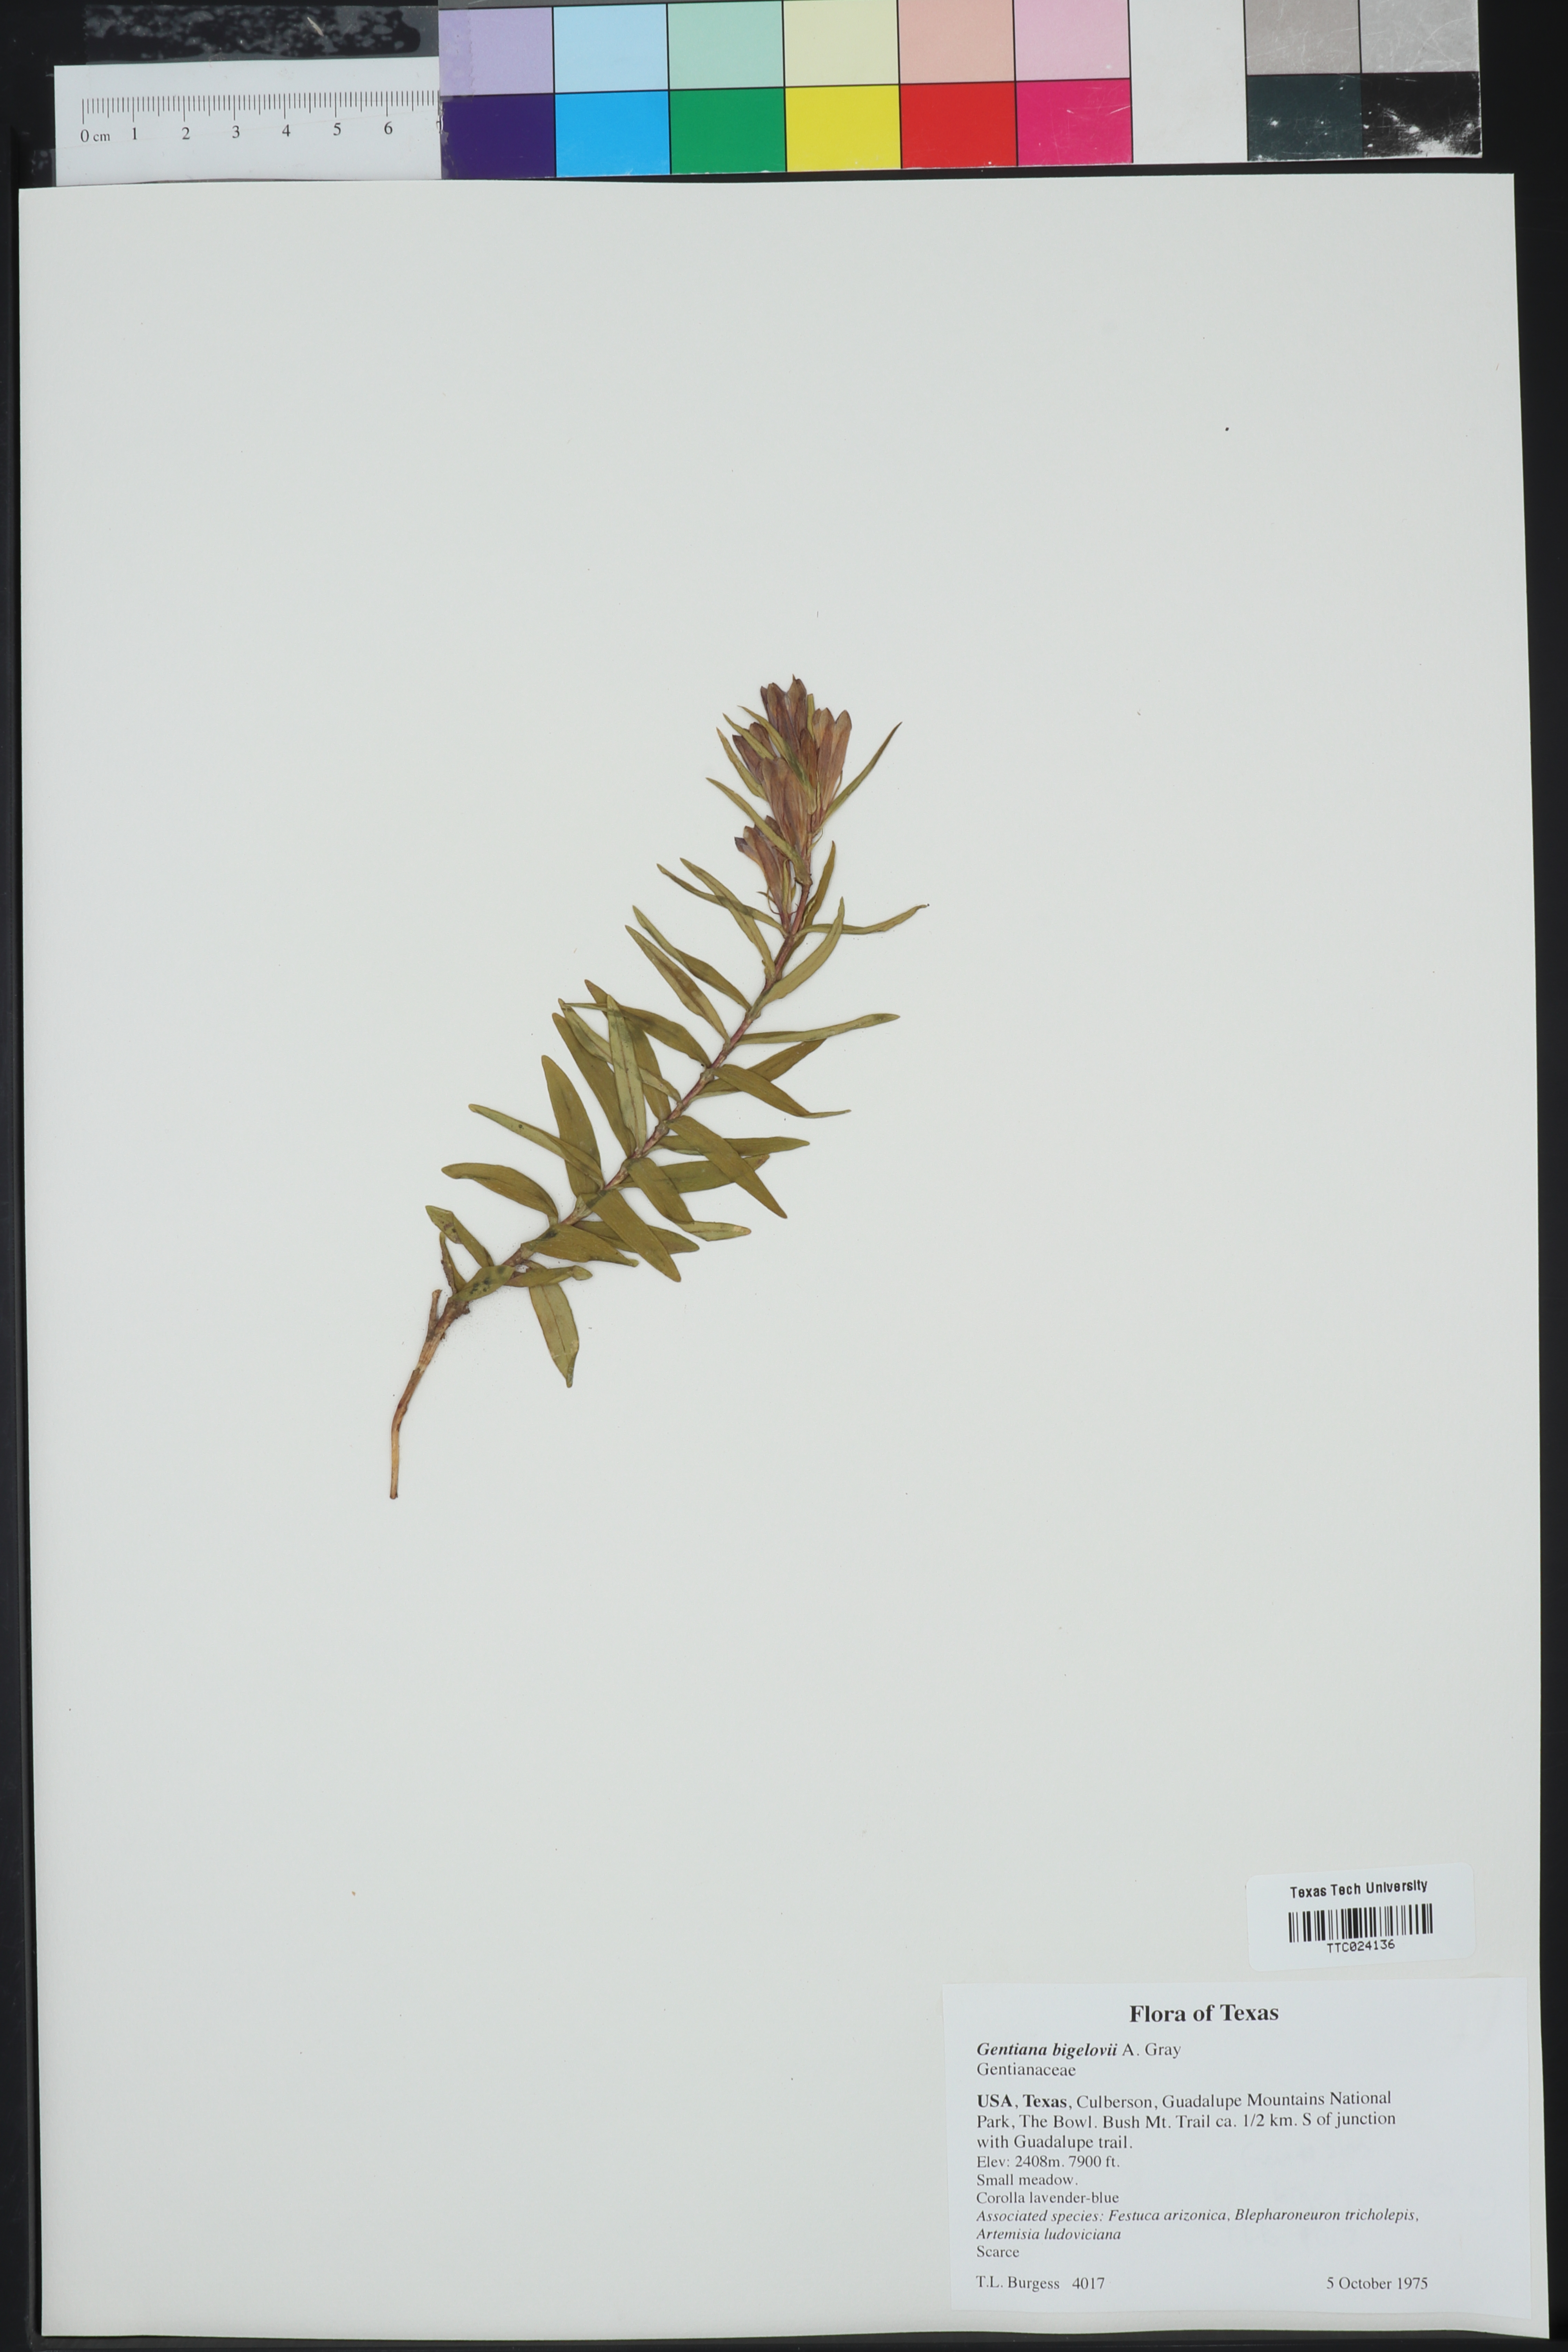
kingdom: Plantae
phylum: Tracheophyta
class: Magnoliopsida
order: Gentianales
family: Gentianaceae
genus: Gentiana
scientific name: Gentiana affinis
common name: Rocky mountain gentian
